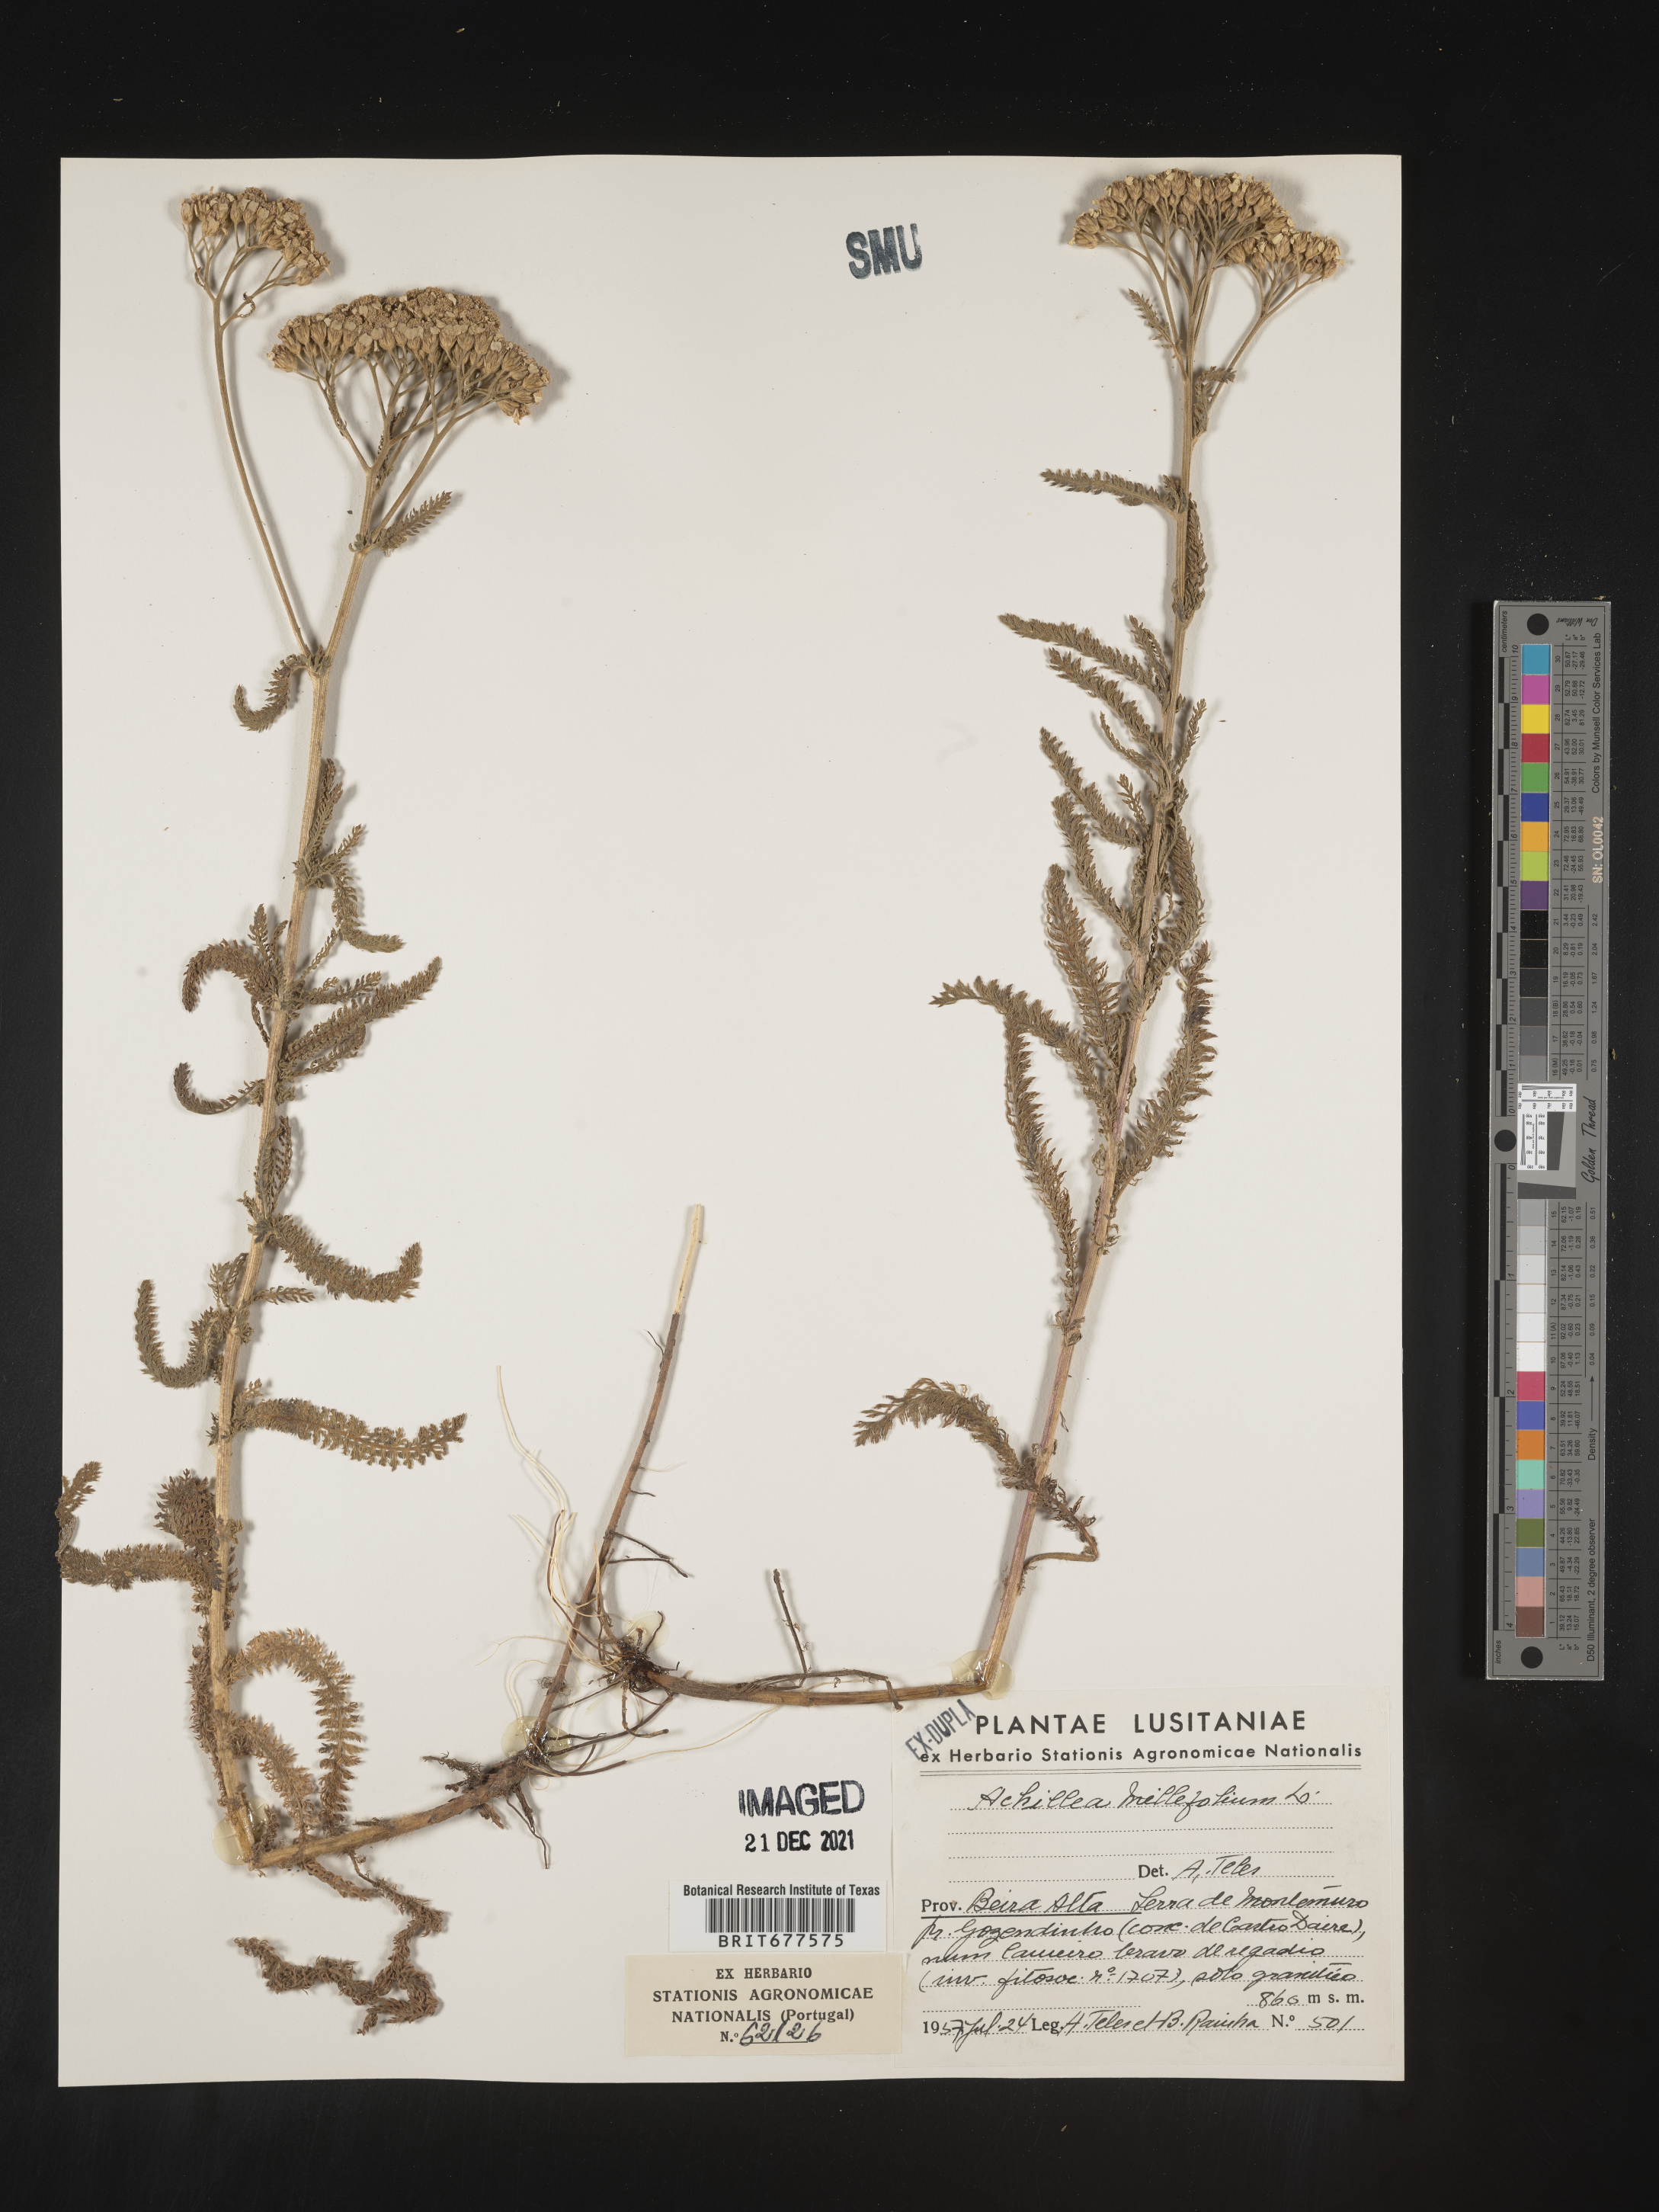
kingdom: Plantae
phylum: Tracheophyta
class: Magnoliopsida
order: Asterales
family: Asteraceae
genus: Achillea
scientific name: Achillea millefolium
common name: Yarrow
